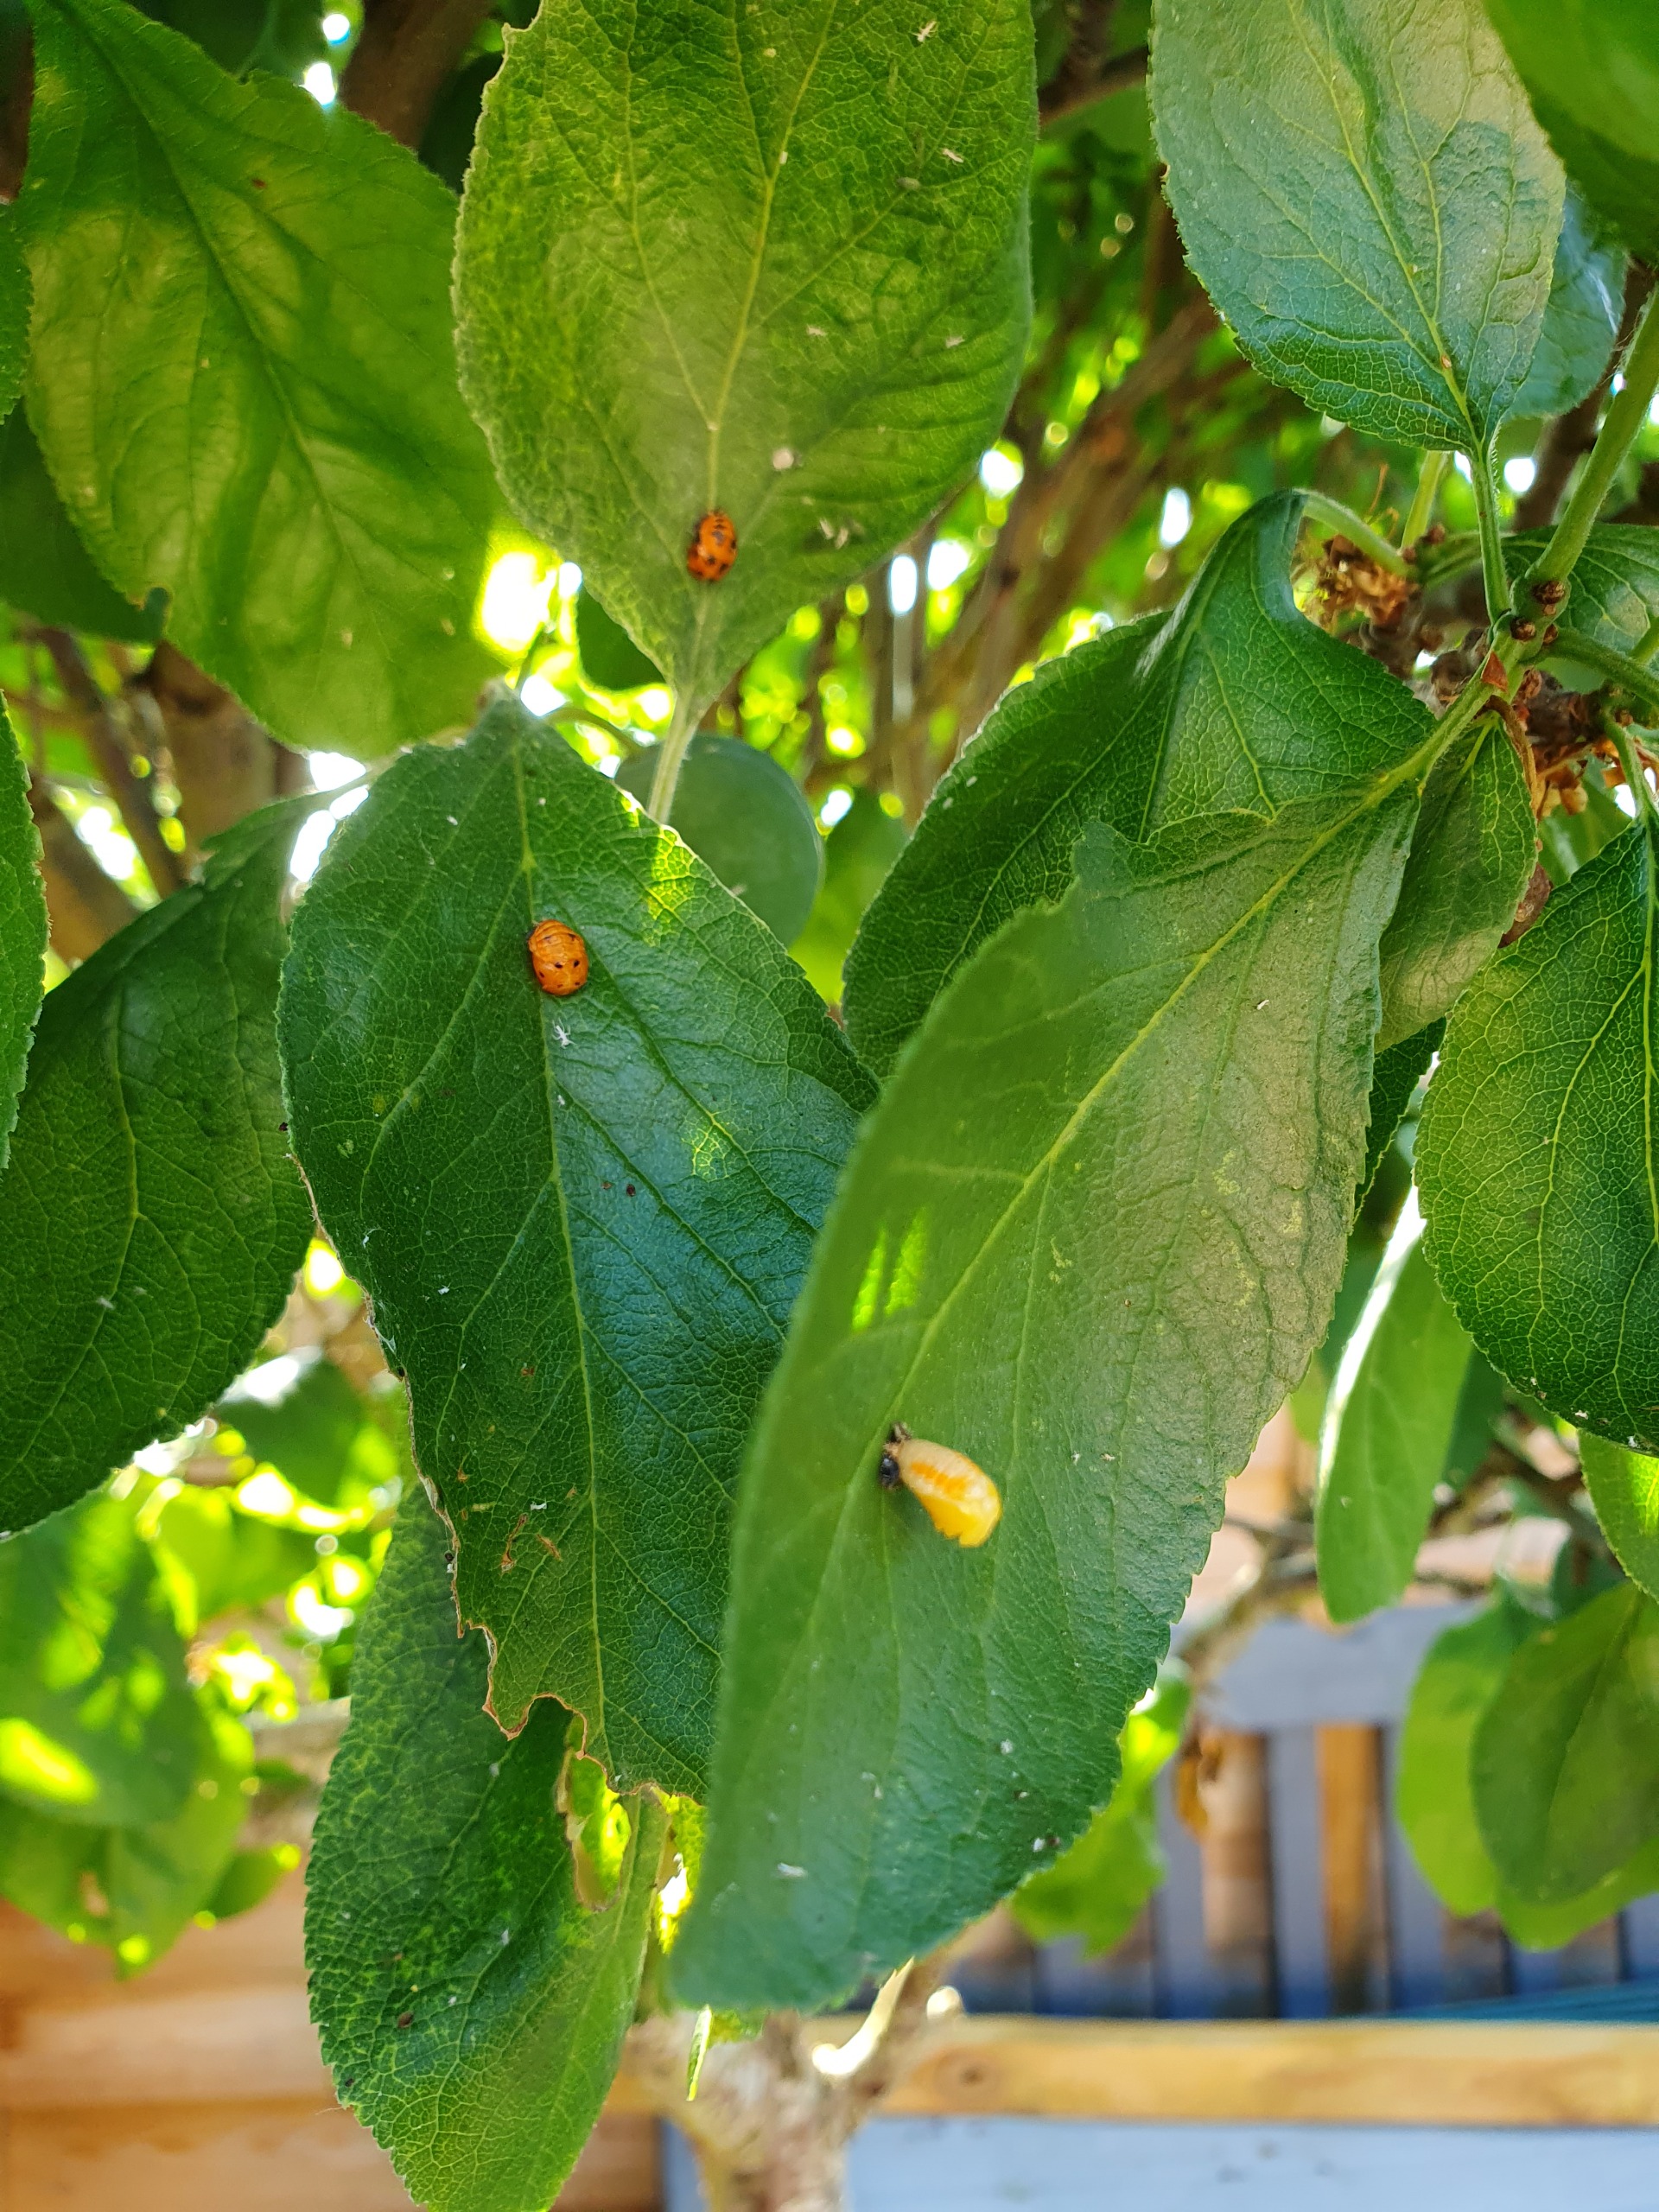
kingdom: Animalia
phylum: Arthropoda
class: Insecta
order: Coleoptera
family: Coccinellidae
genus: Harmonia
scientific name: Harmonia axyridis
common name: Harlekinmariehøne
